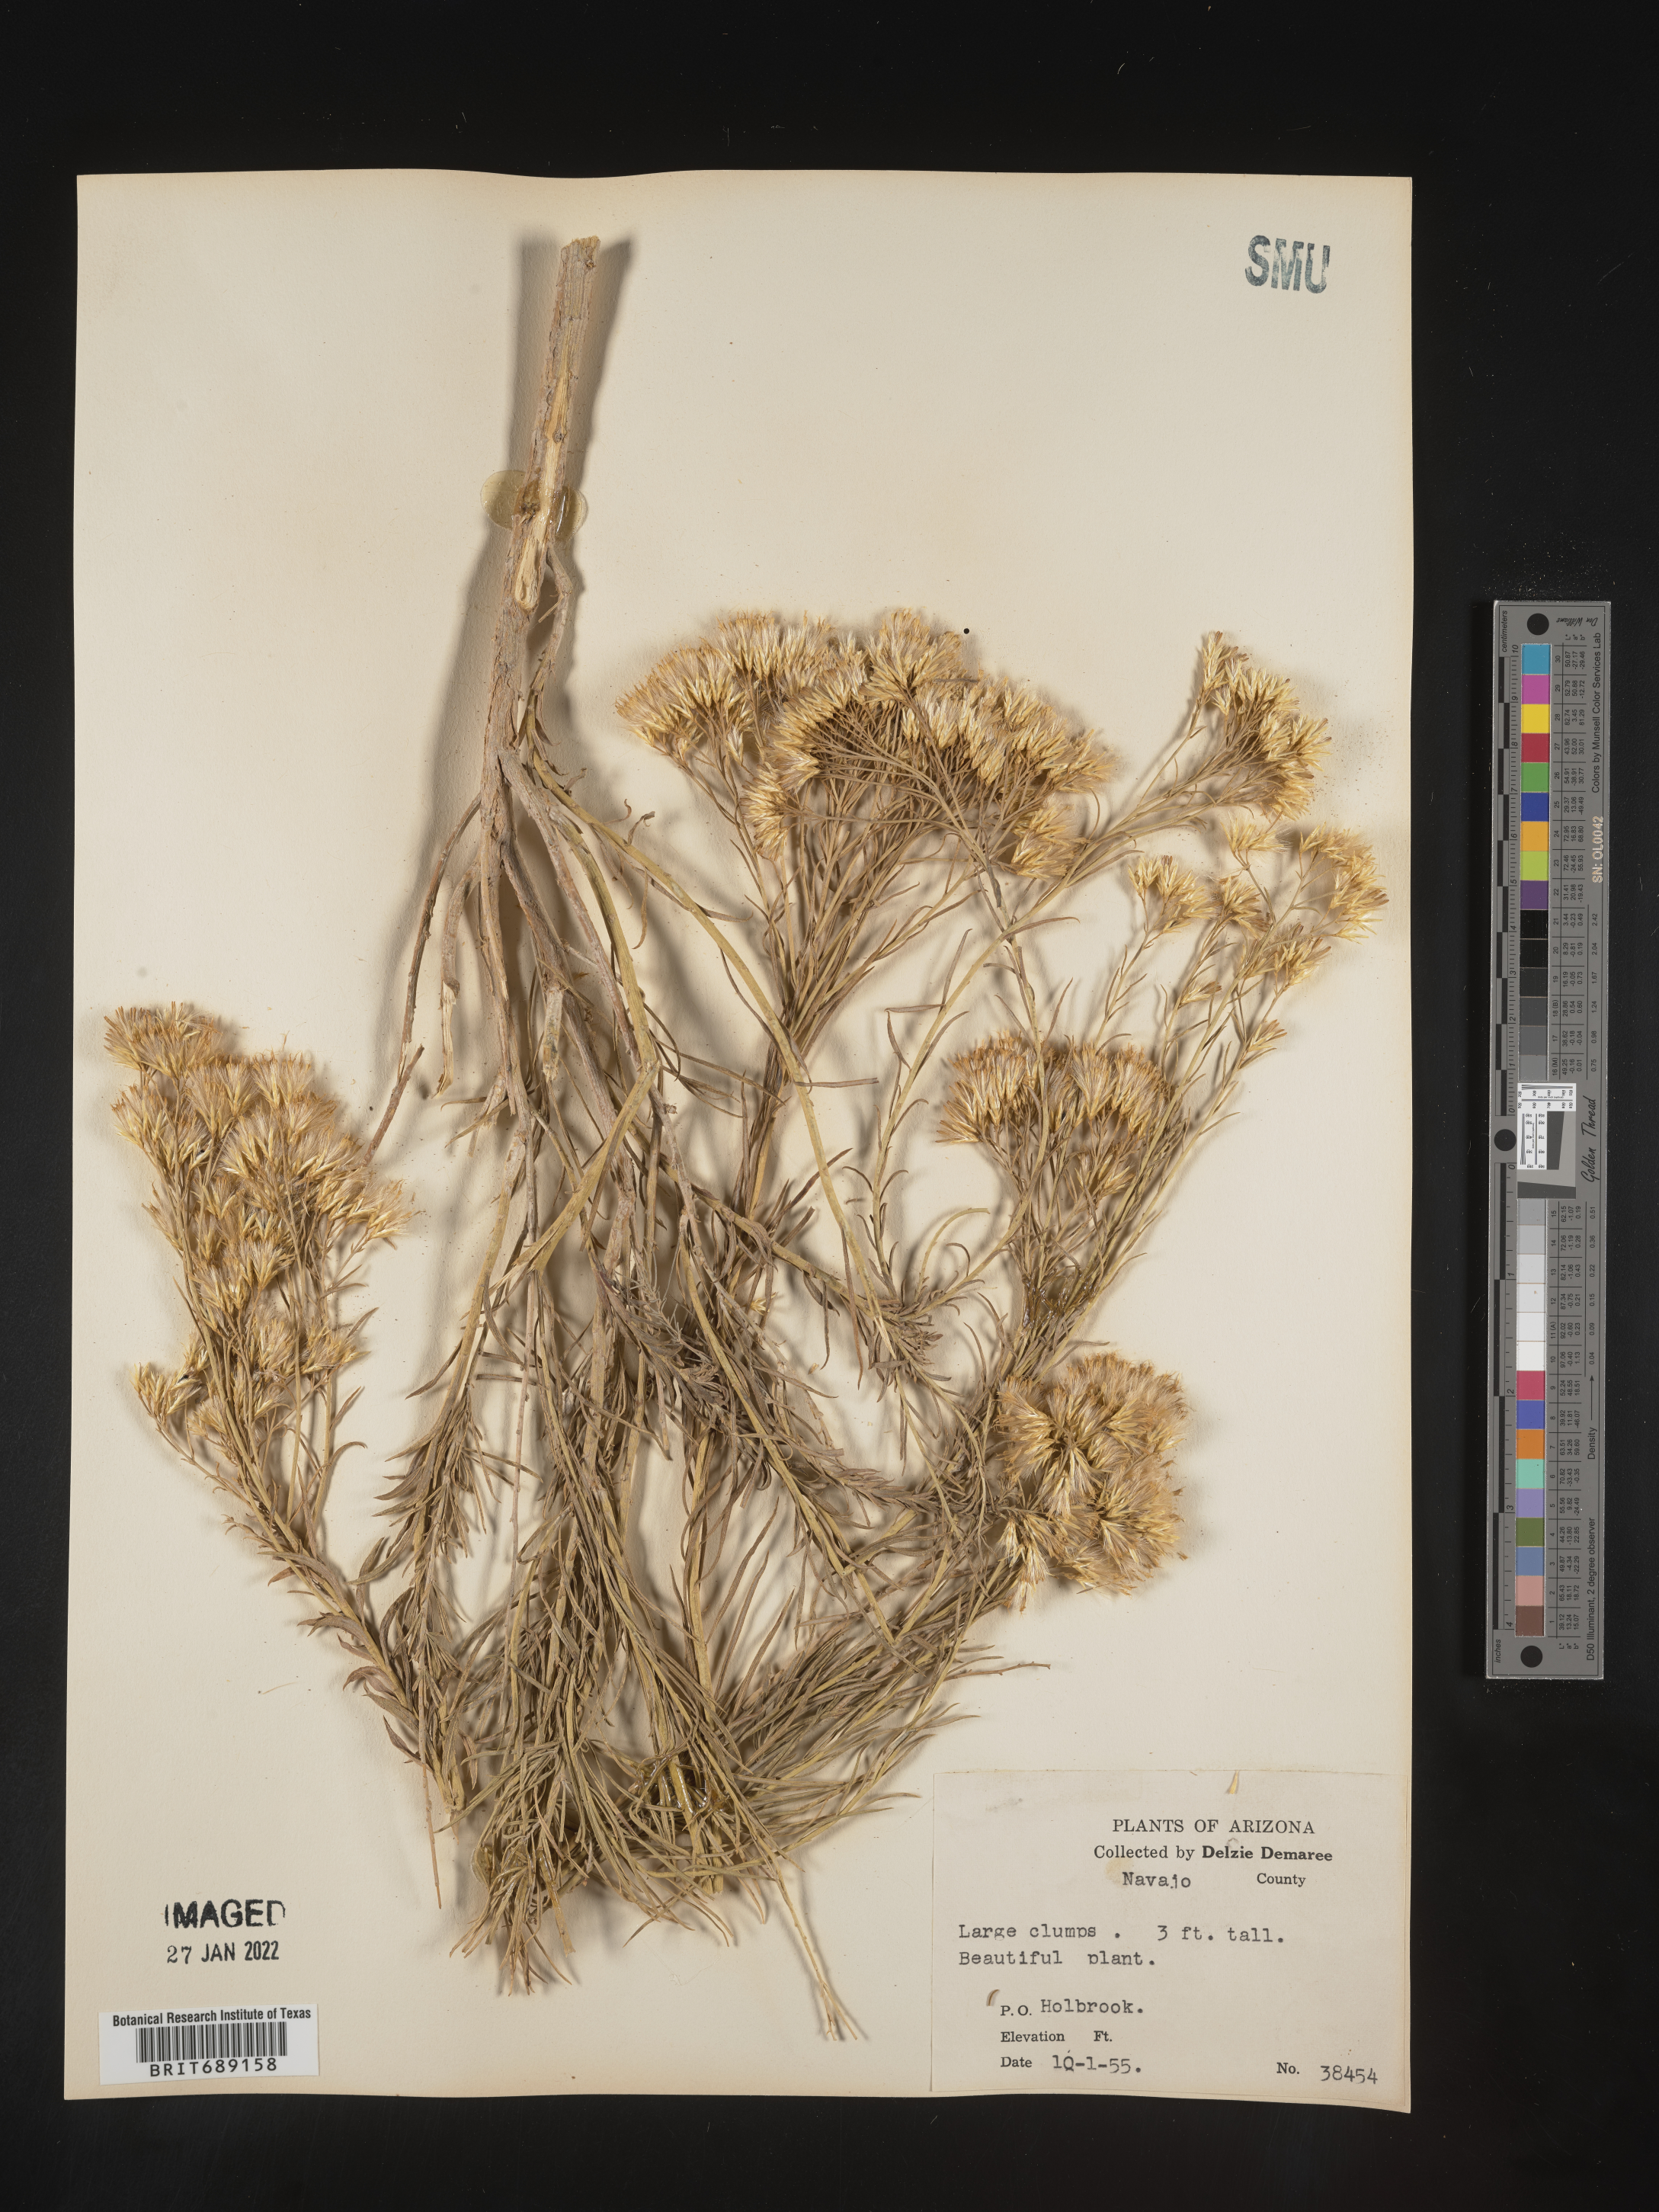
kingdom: Plantae
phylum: Tracheophyta
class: Magnoliopsida
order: Asterales
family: Asteraceae
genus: Chrysothamnus
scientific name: Chrysothamnus
